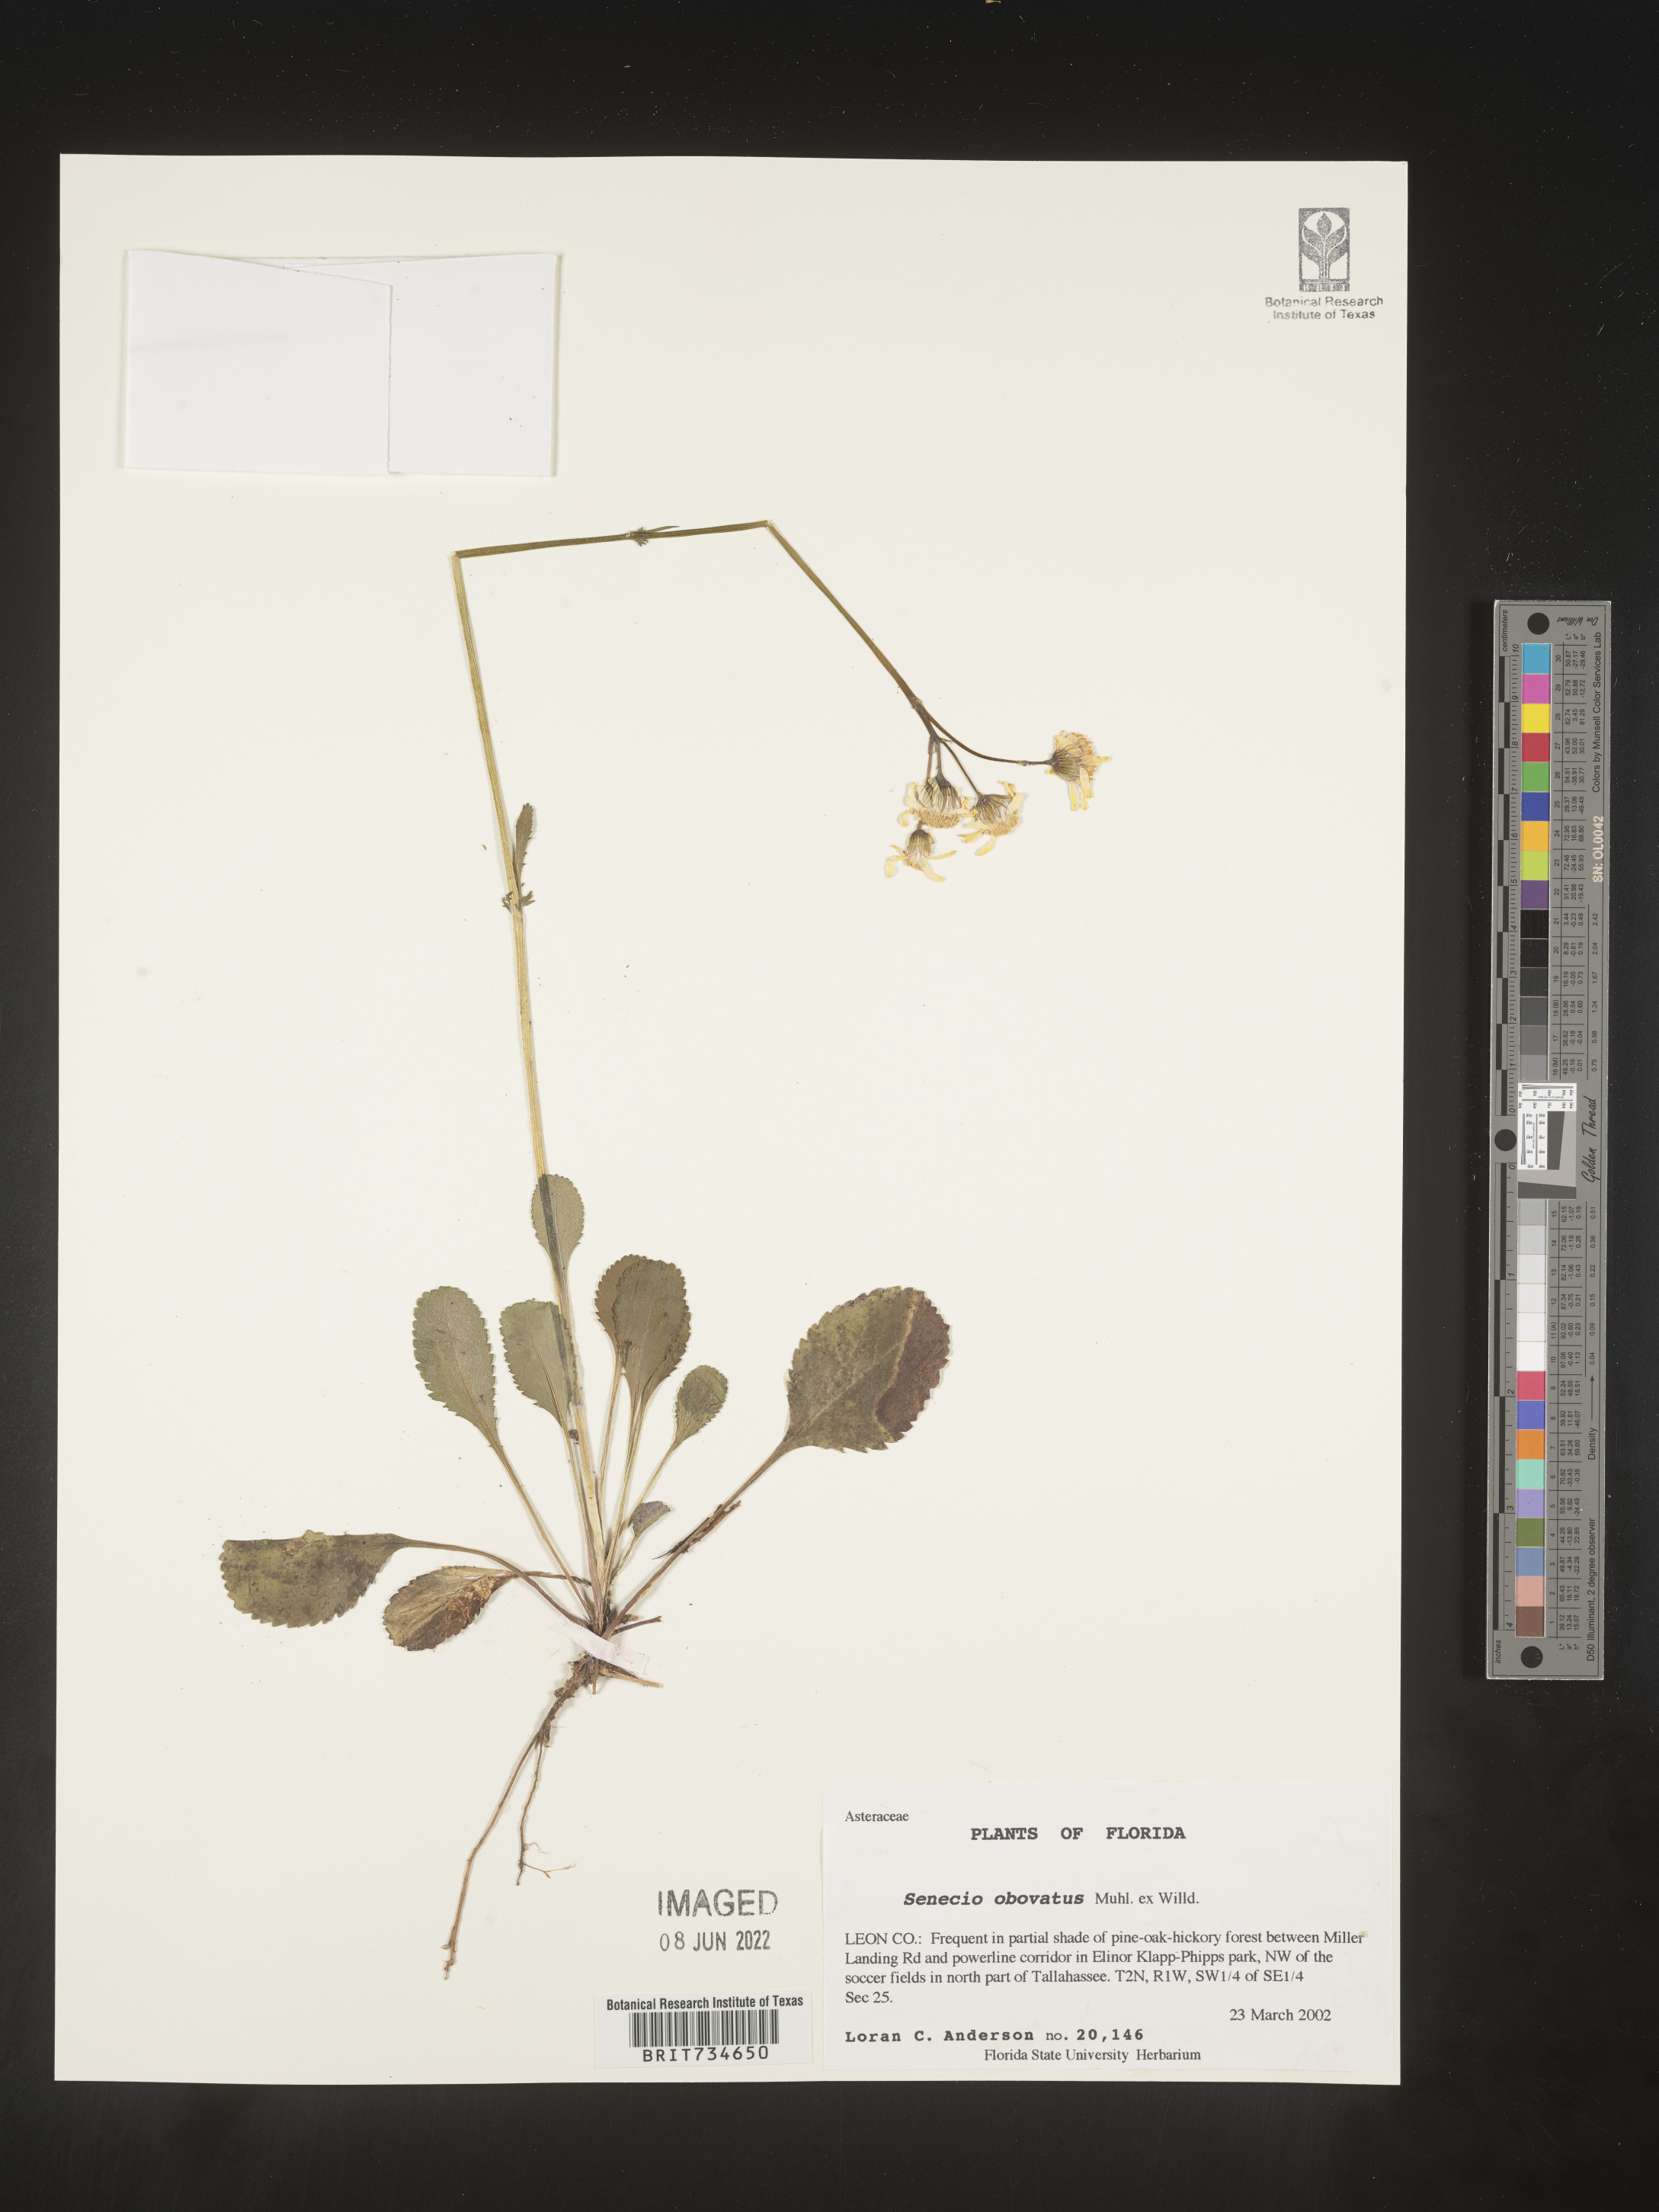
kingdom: Plantae
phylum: Tracheophyta
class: Magnoliopsida
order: Asterales
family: Asteraceae
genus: Packera
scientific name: Packera obovata
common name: Round-leaf ragwort
